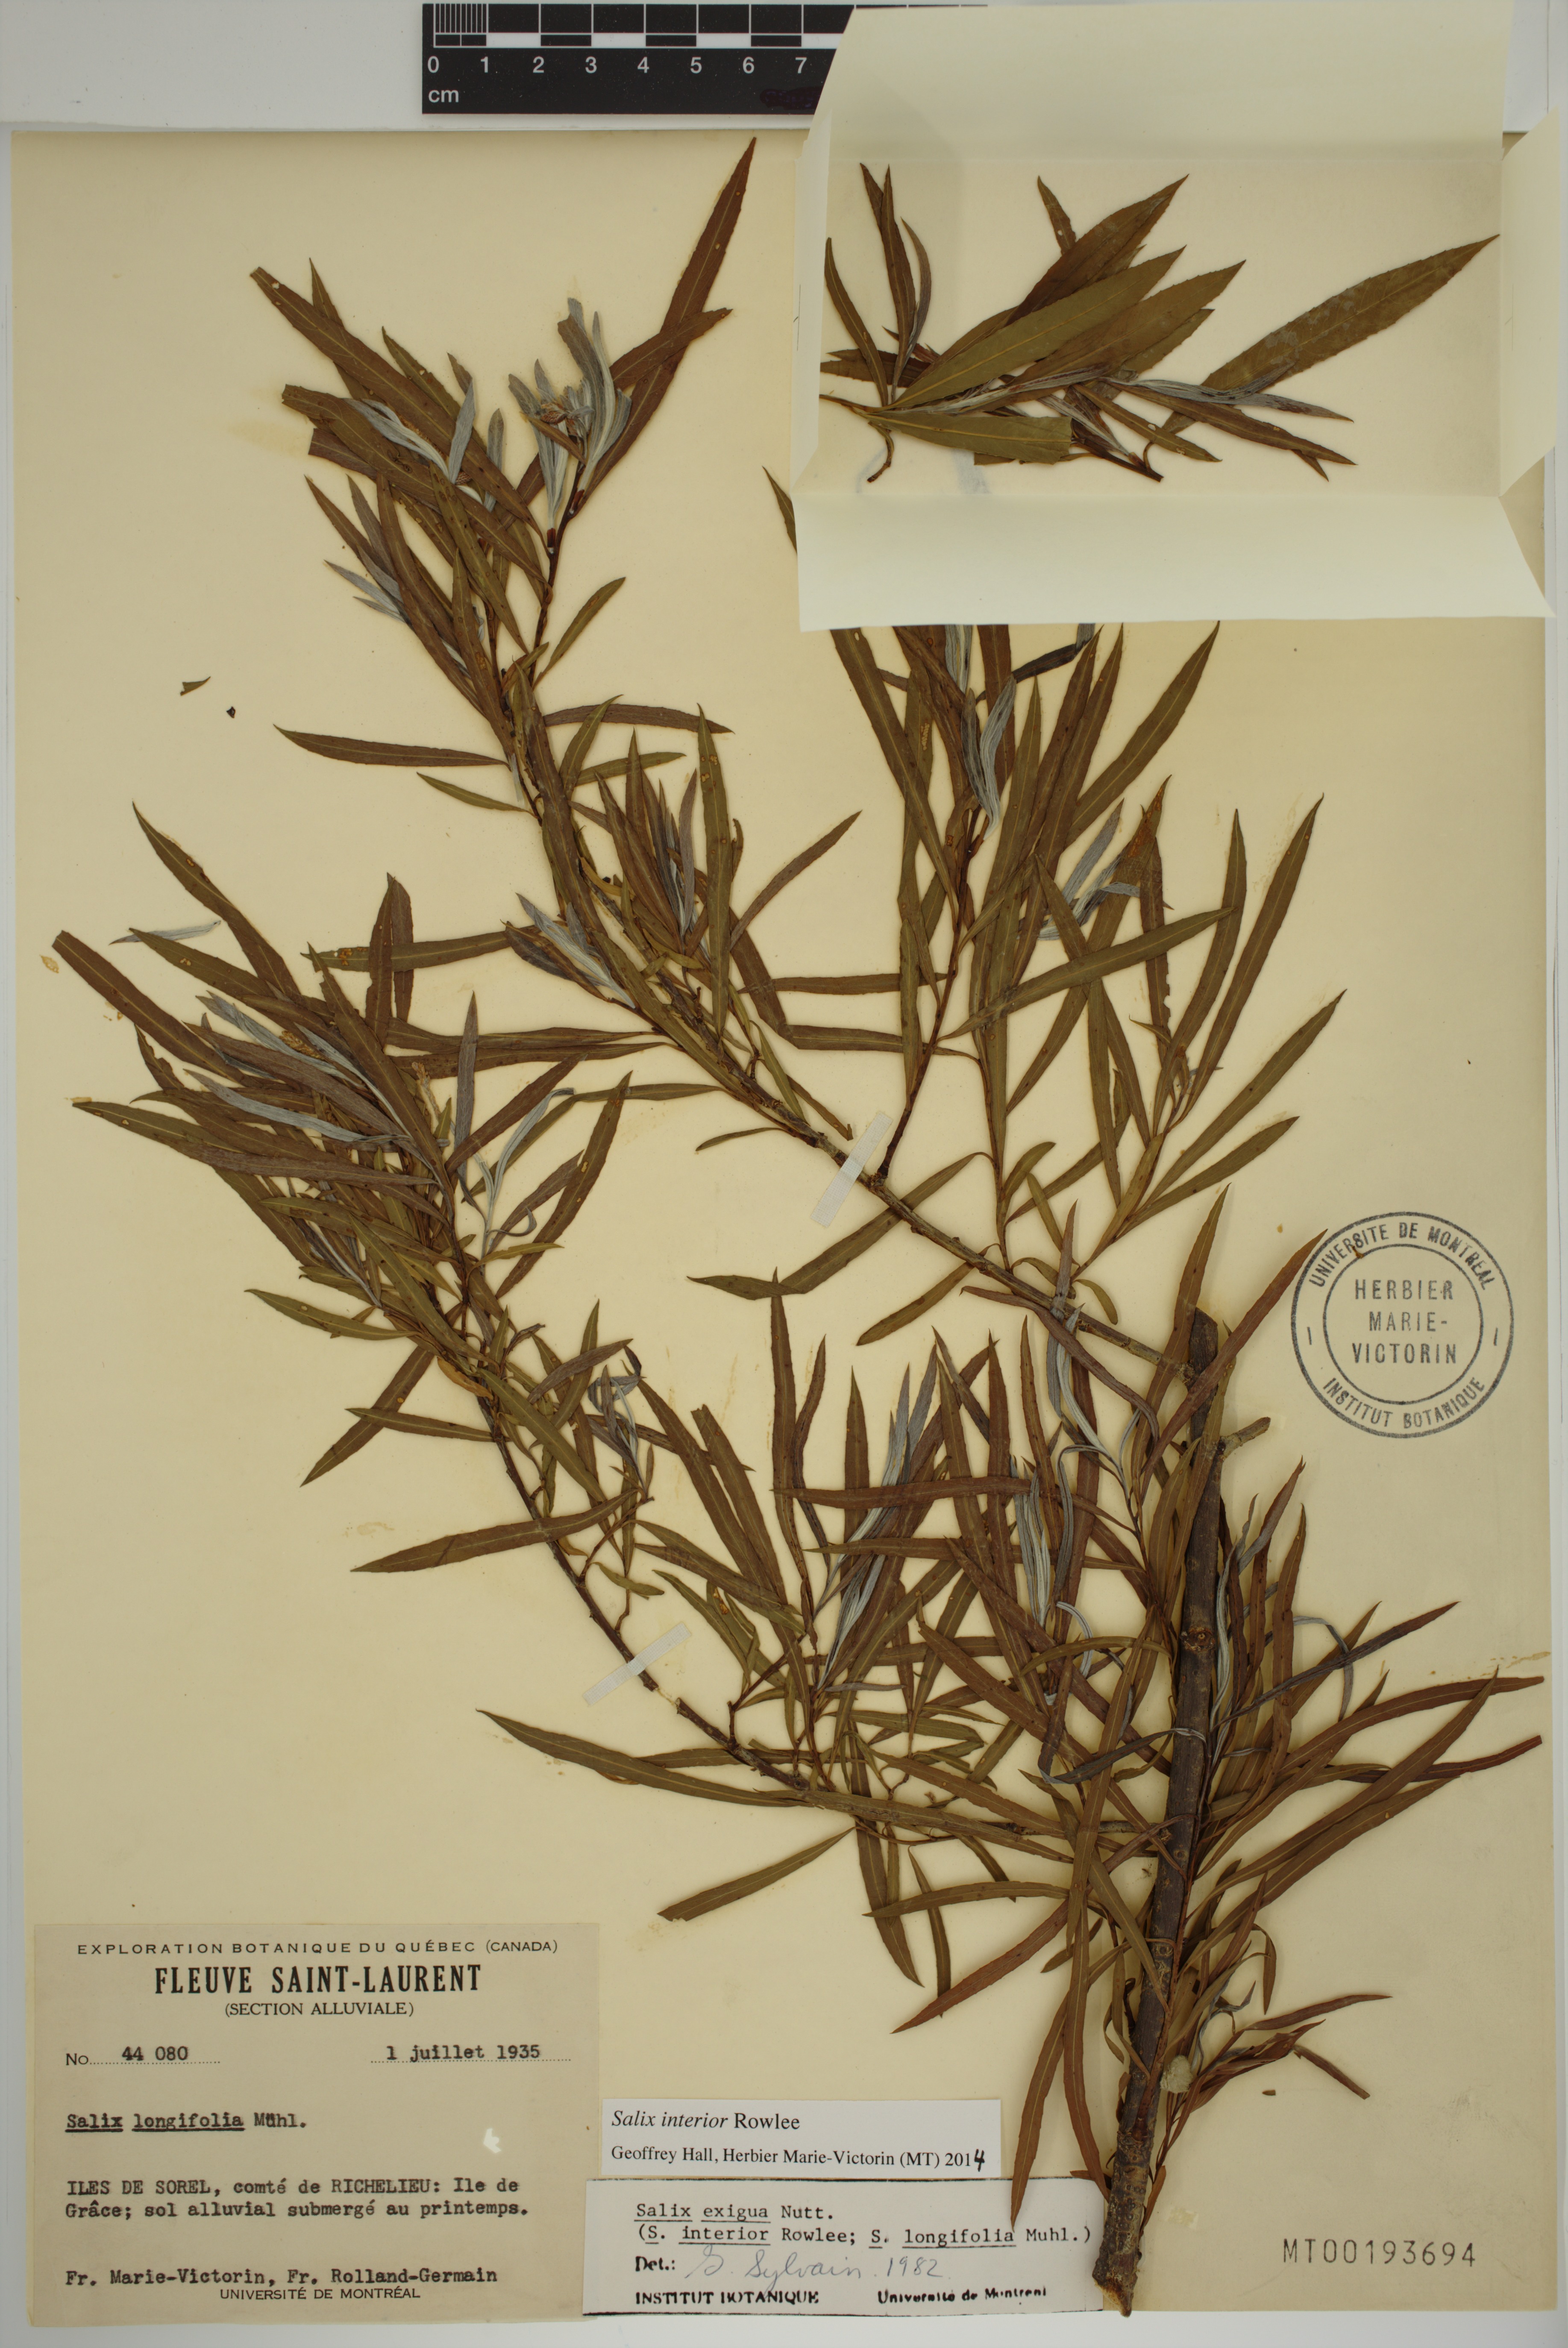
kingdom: Plantae
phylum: Tracheophyta
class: Magnoliopsida
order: Malpighiales
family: Salicaceae
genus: Salix
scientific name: Salix interior
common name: Sandbar willow
